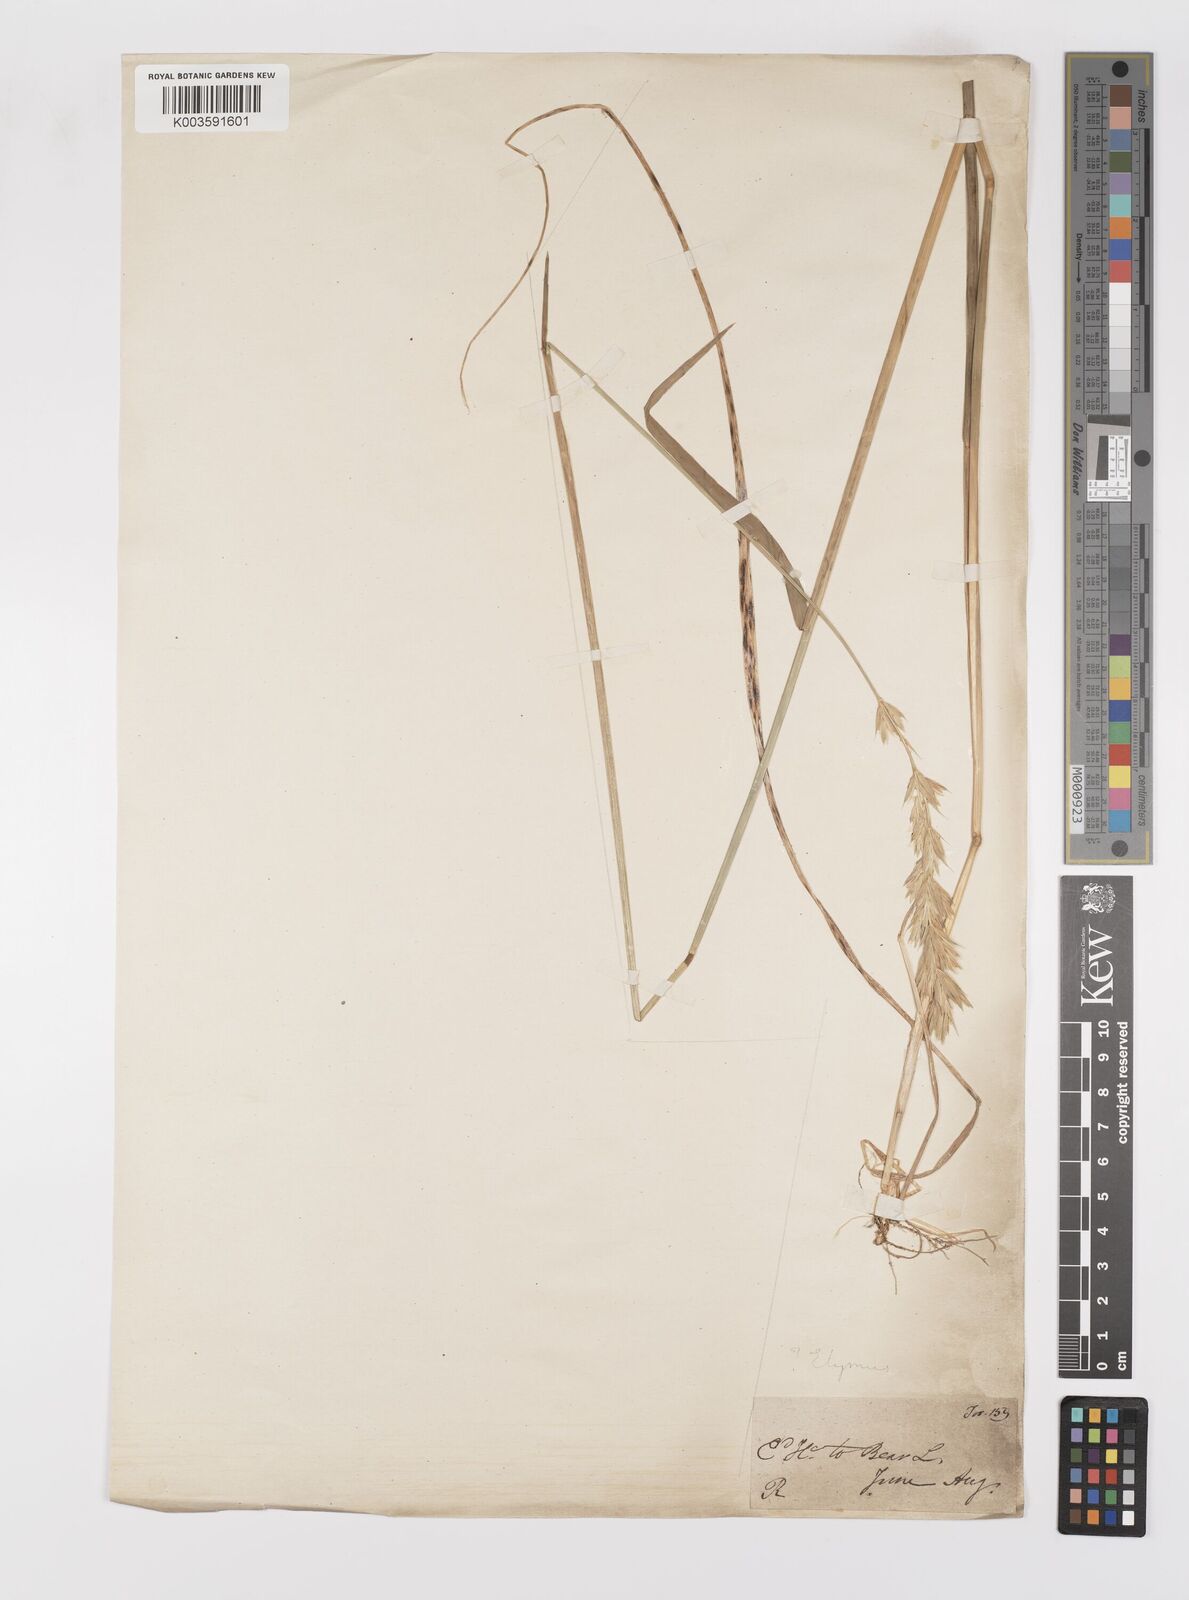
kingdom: Plantae
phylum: Tracheophyta
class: Liliopsida
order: Poales
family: Poaceae
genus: Leymus
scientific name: Leymus innovatus
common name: Boreal wild rye
